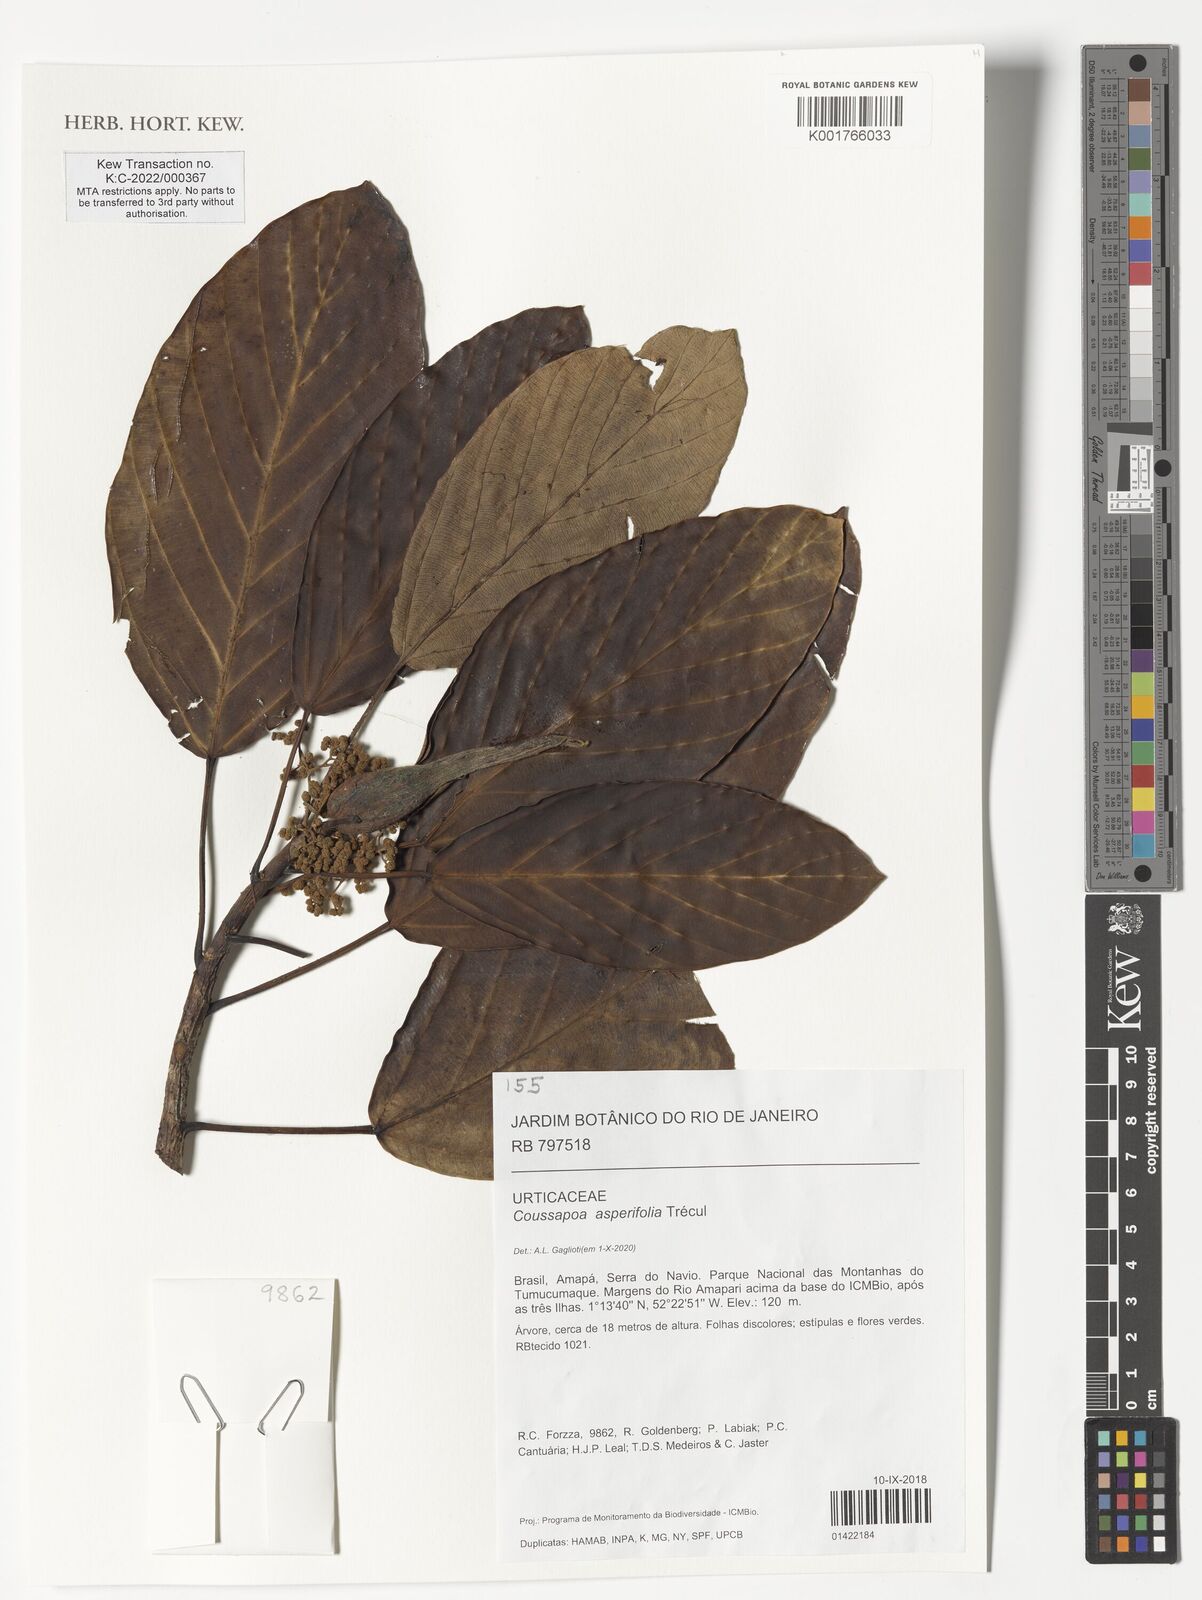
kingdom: Plantae
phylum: Tracheophyta
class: Magnoliopsida
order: Rosales
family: Urticaceae
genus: Coussapoa
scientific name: Coussapoa asperifolia
